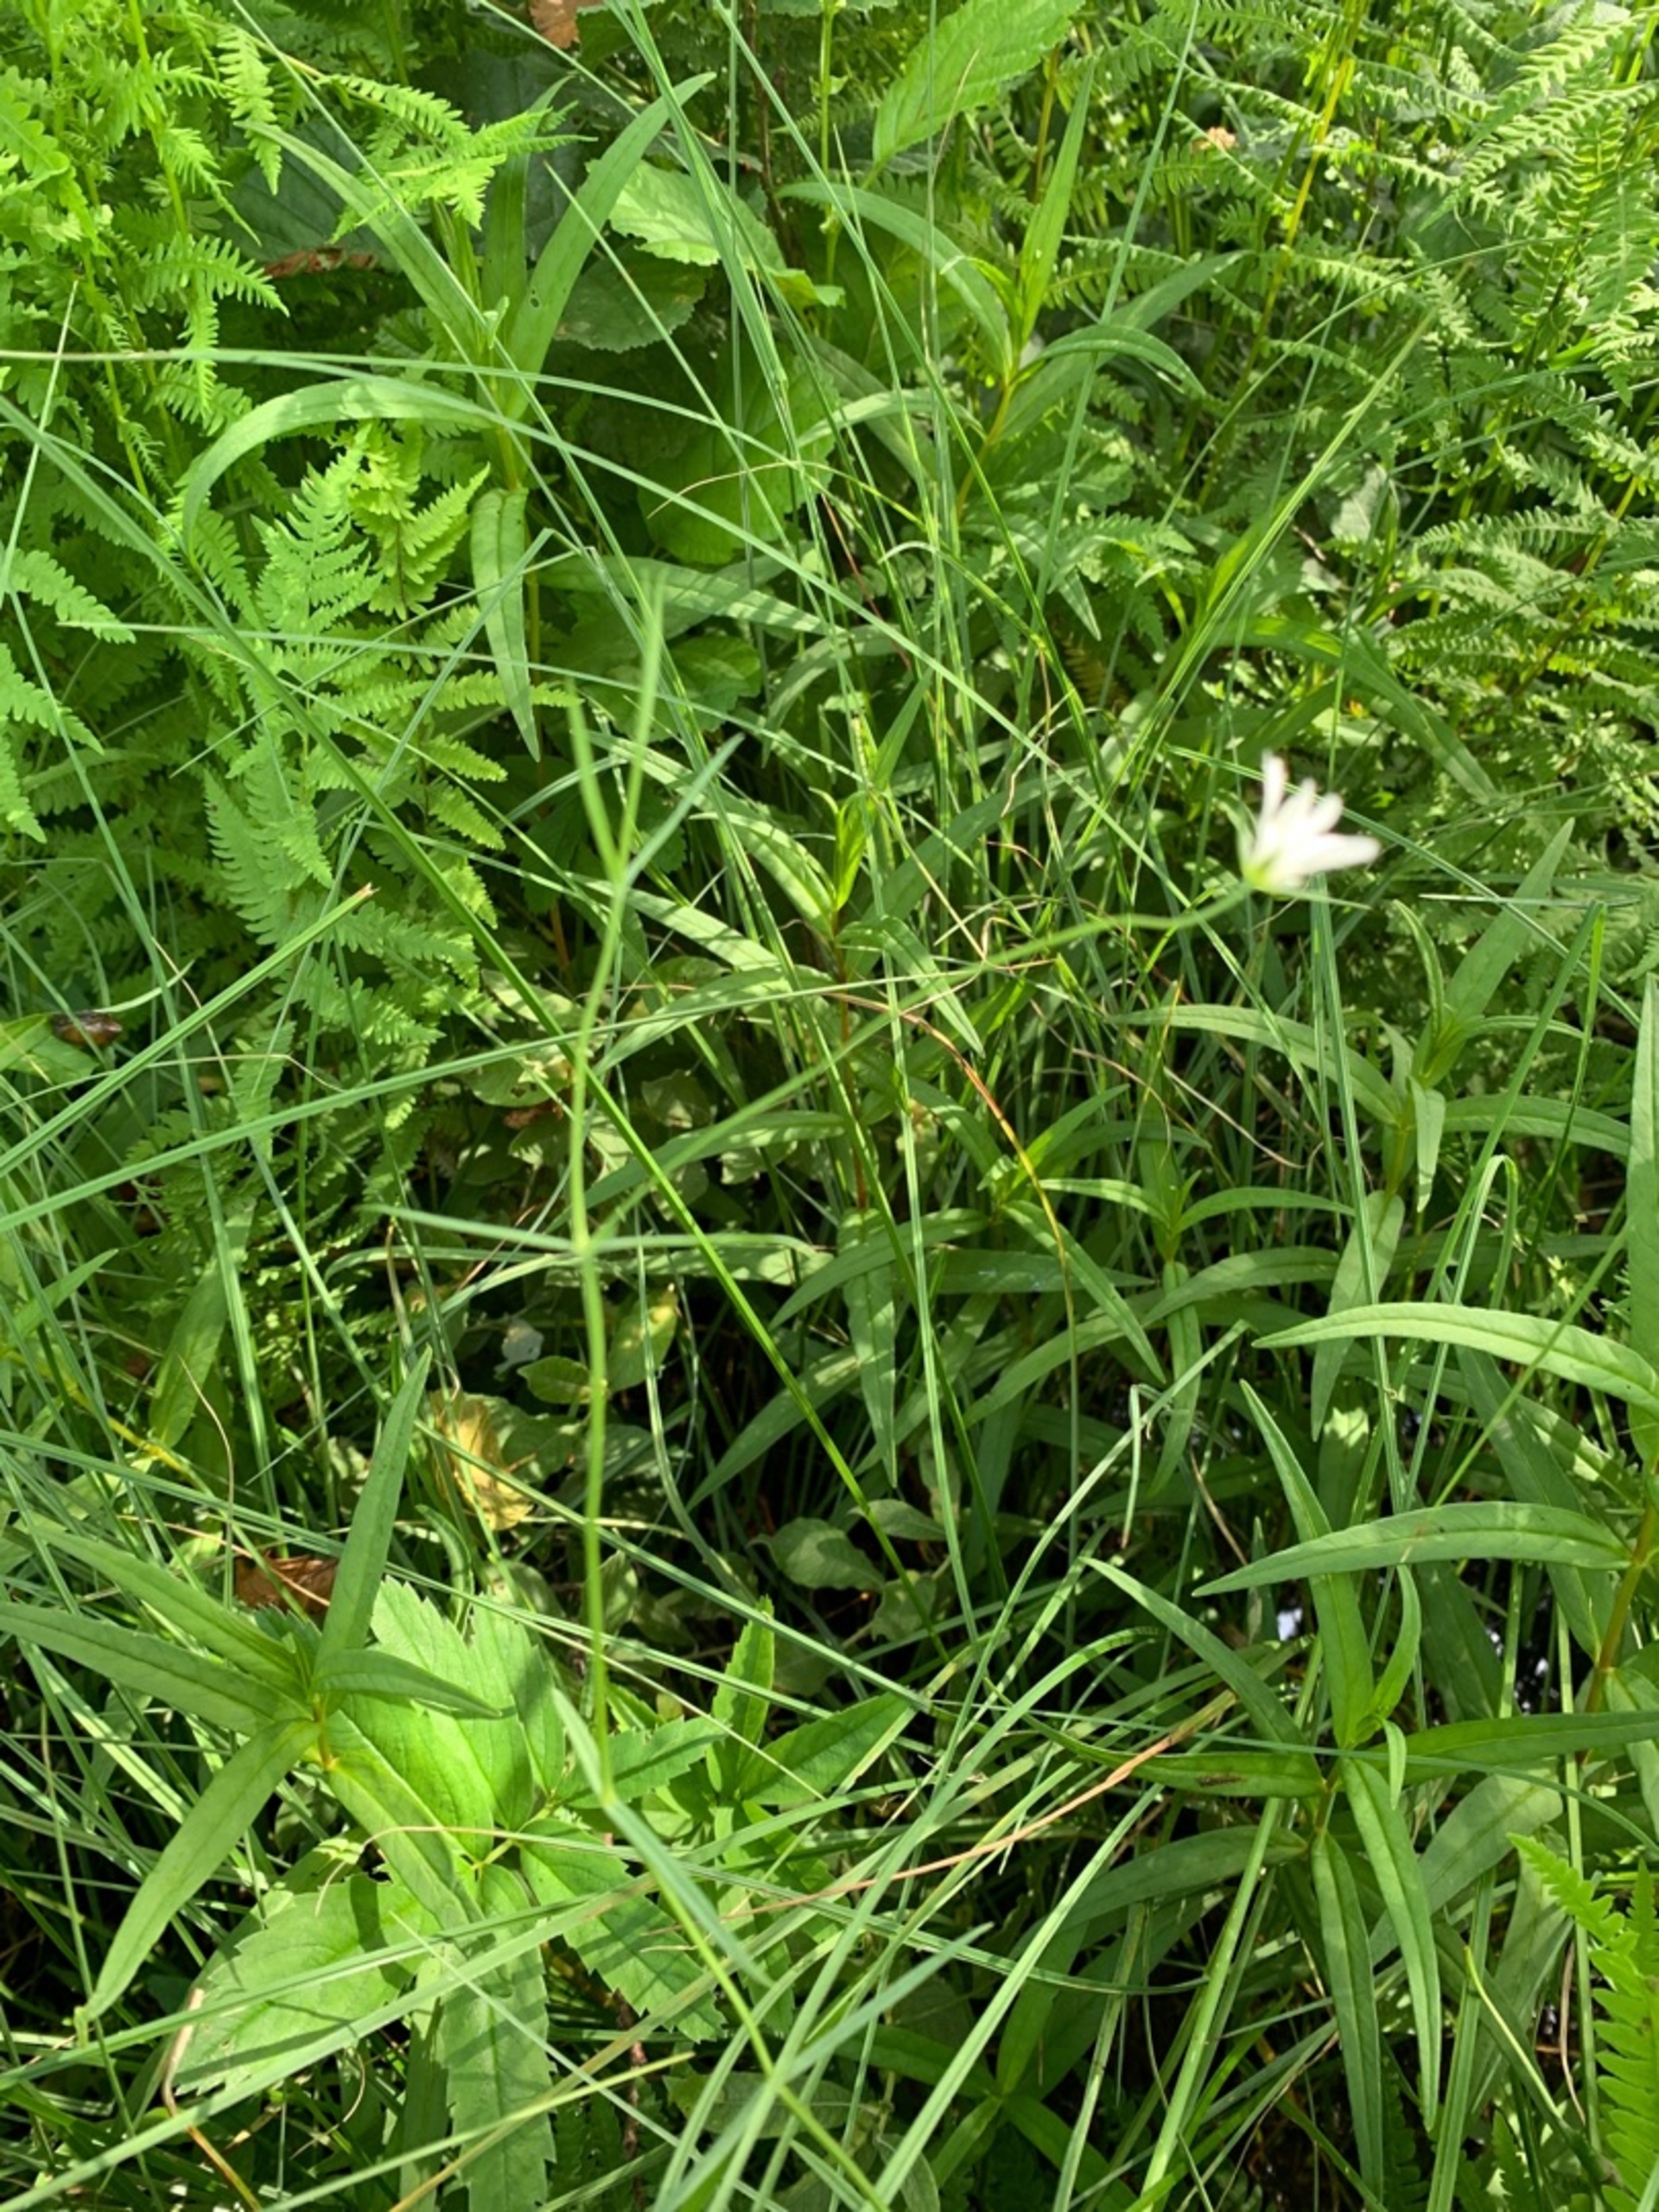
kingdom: Plantae
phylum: Tracheophyta
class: Magnoliopsida
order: Caryophyllales
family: Caryophyllaceae
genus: Stellaria
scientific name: Stellaria palustris
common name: Kær-fladstjerne
